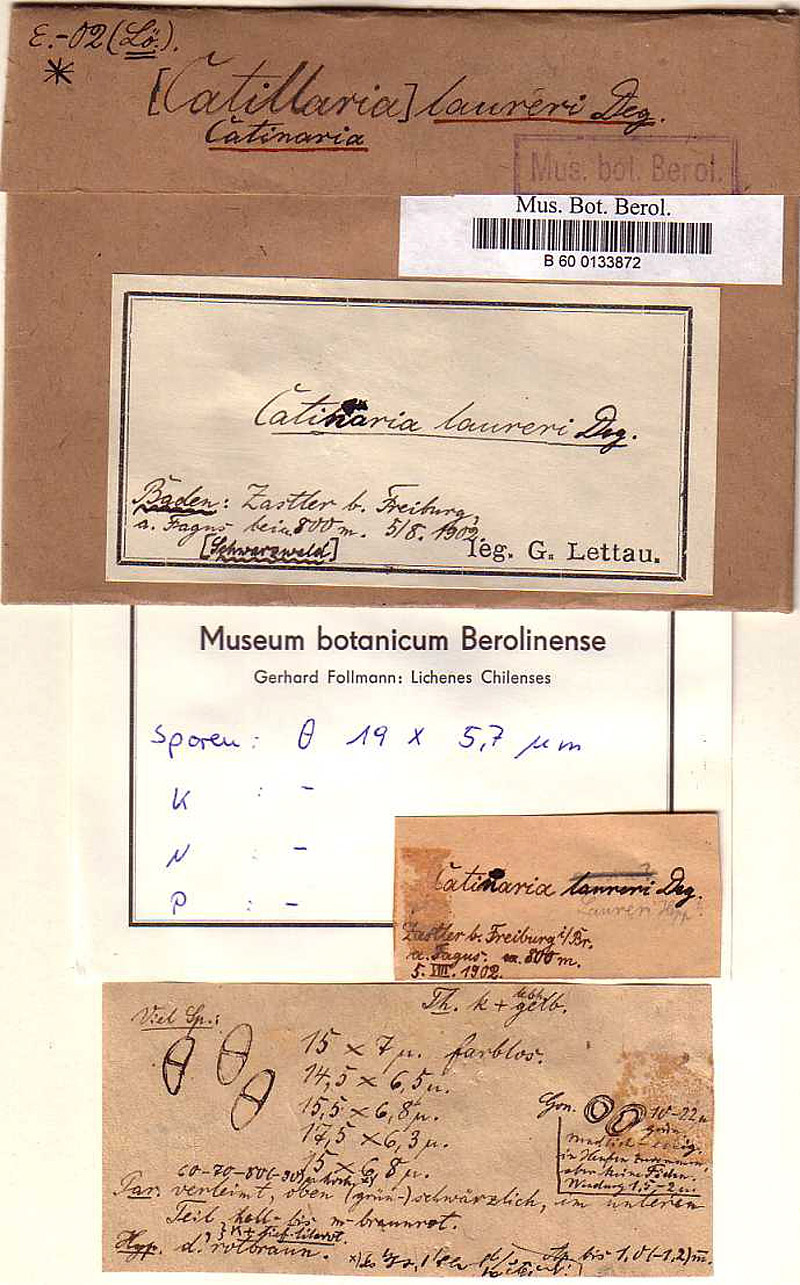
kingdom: Fungi
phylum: Ascomycota
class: Lecanoromycetes
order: Lecanorales
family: Ramalinaceae
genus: Megalaria
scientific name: Megalaria laureri
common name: Laurer's catillaria
